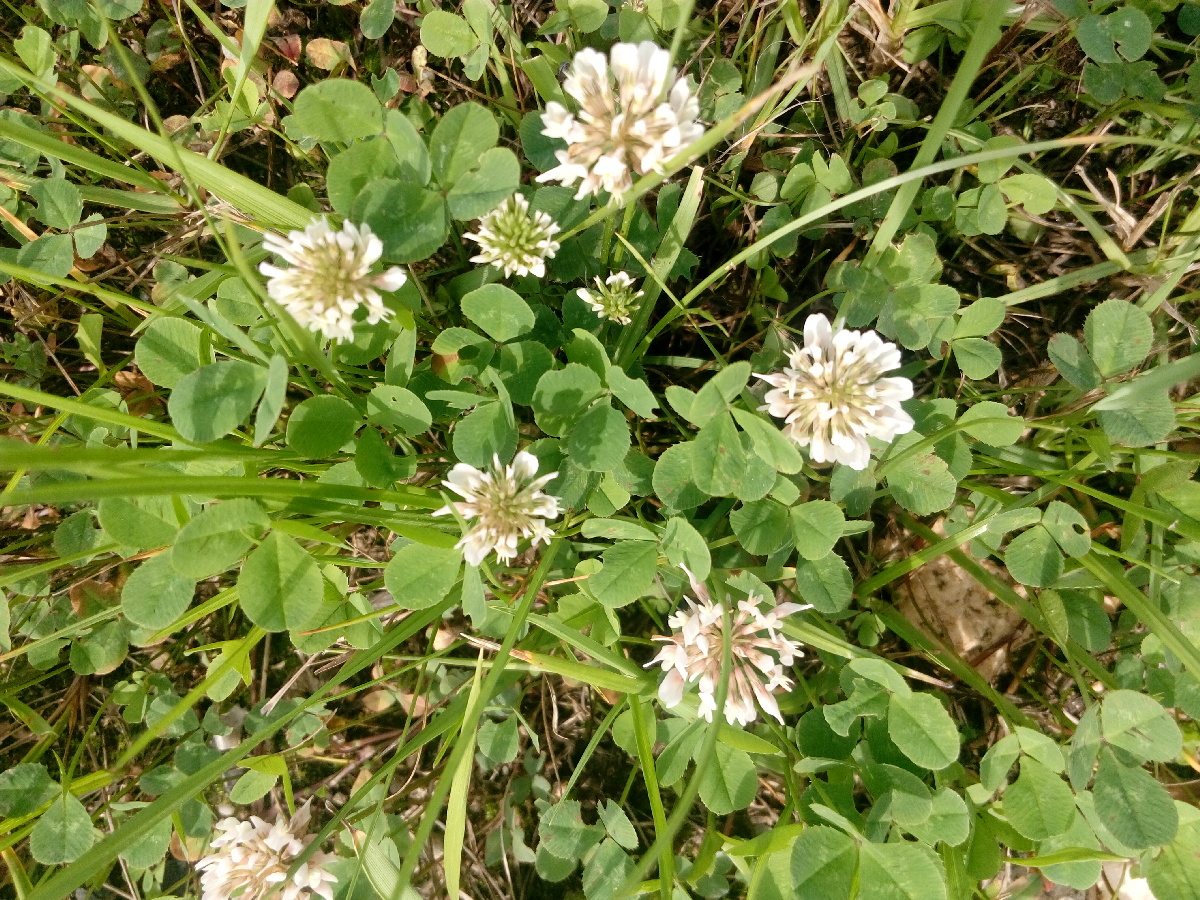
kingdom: Plantae
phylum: Tracheophyta
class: Magnoliopsida
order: Fabales
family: Fabaceae
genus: Trifolium
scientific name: Trifolium repens
